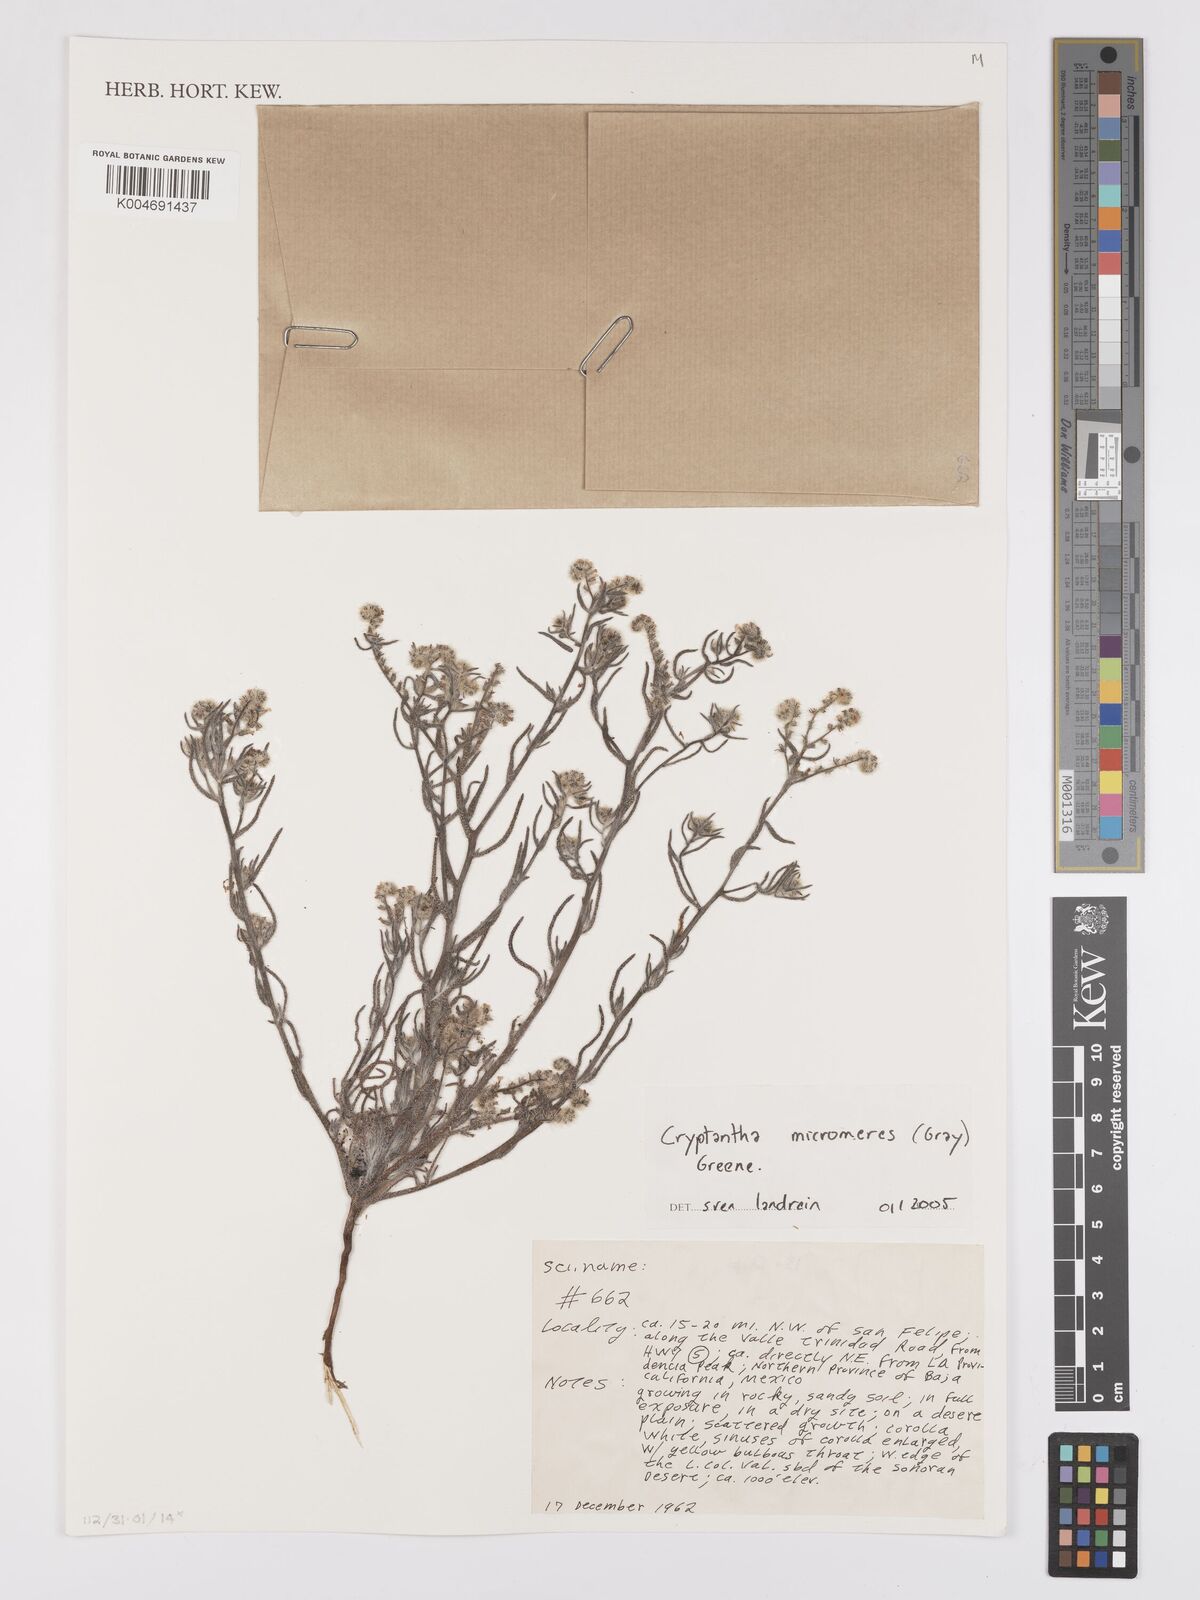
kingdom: Plantae
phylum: Tracheophyta
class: Magnoliopsida
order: Boraginales
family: Boraginaceae
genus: Johnstonella
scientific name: Johnstonella micromeres
